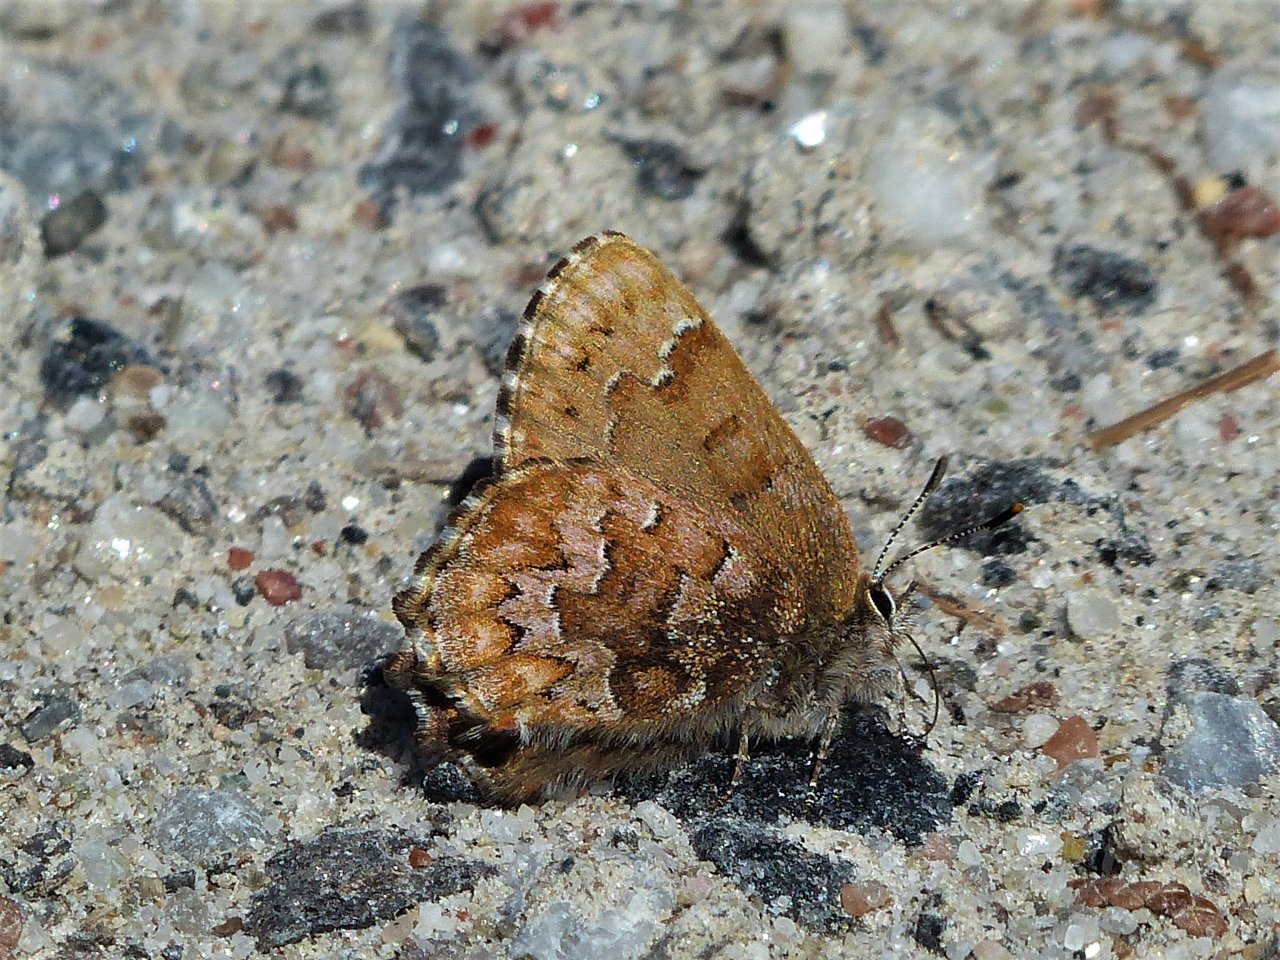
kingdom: Animalia
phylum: Arthropoda
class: Insecta
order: Lepidoptera
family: Lycaenidae
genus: Incisalia
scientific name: Incisalia niphon
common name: Eastern Pine Elfin
